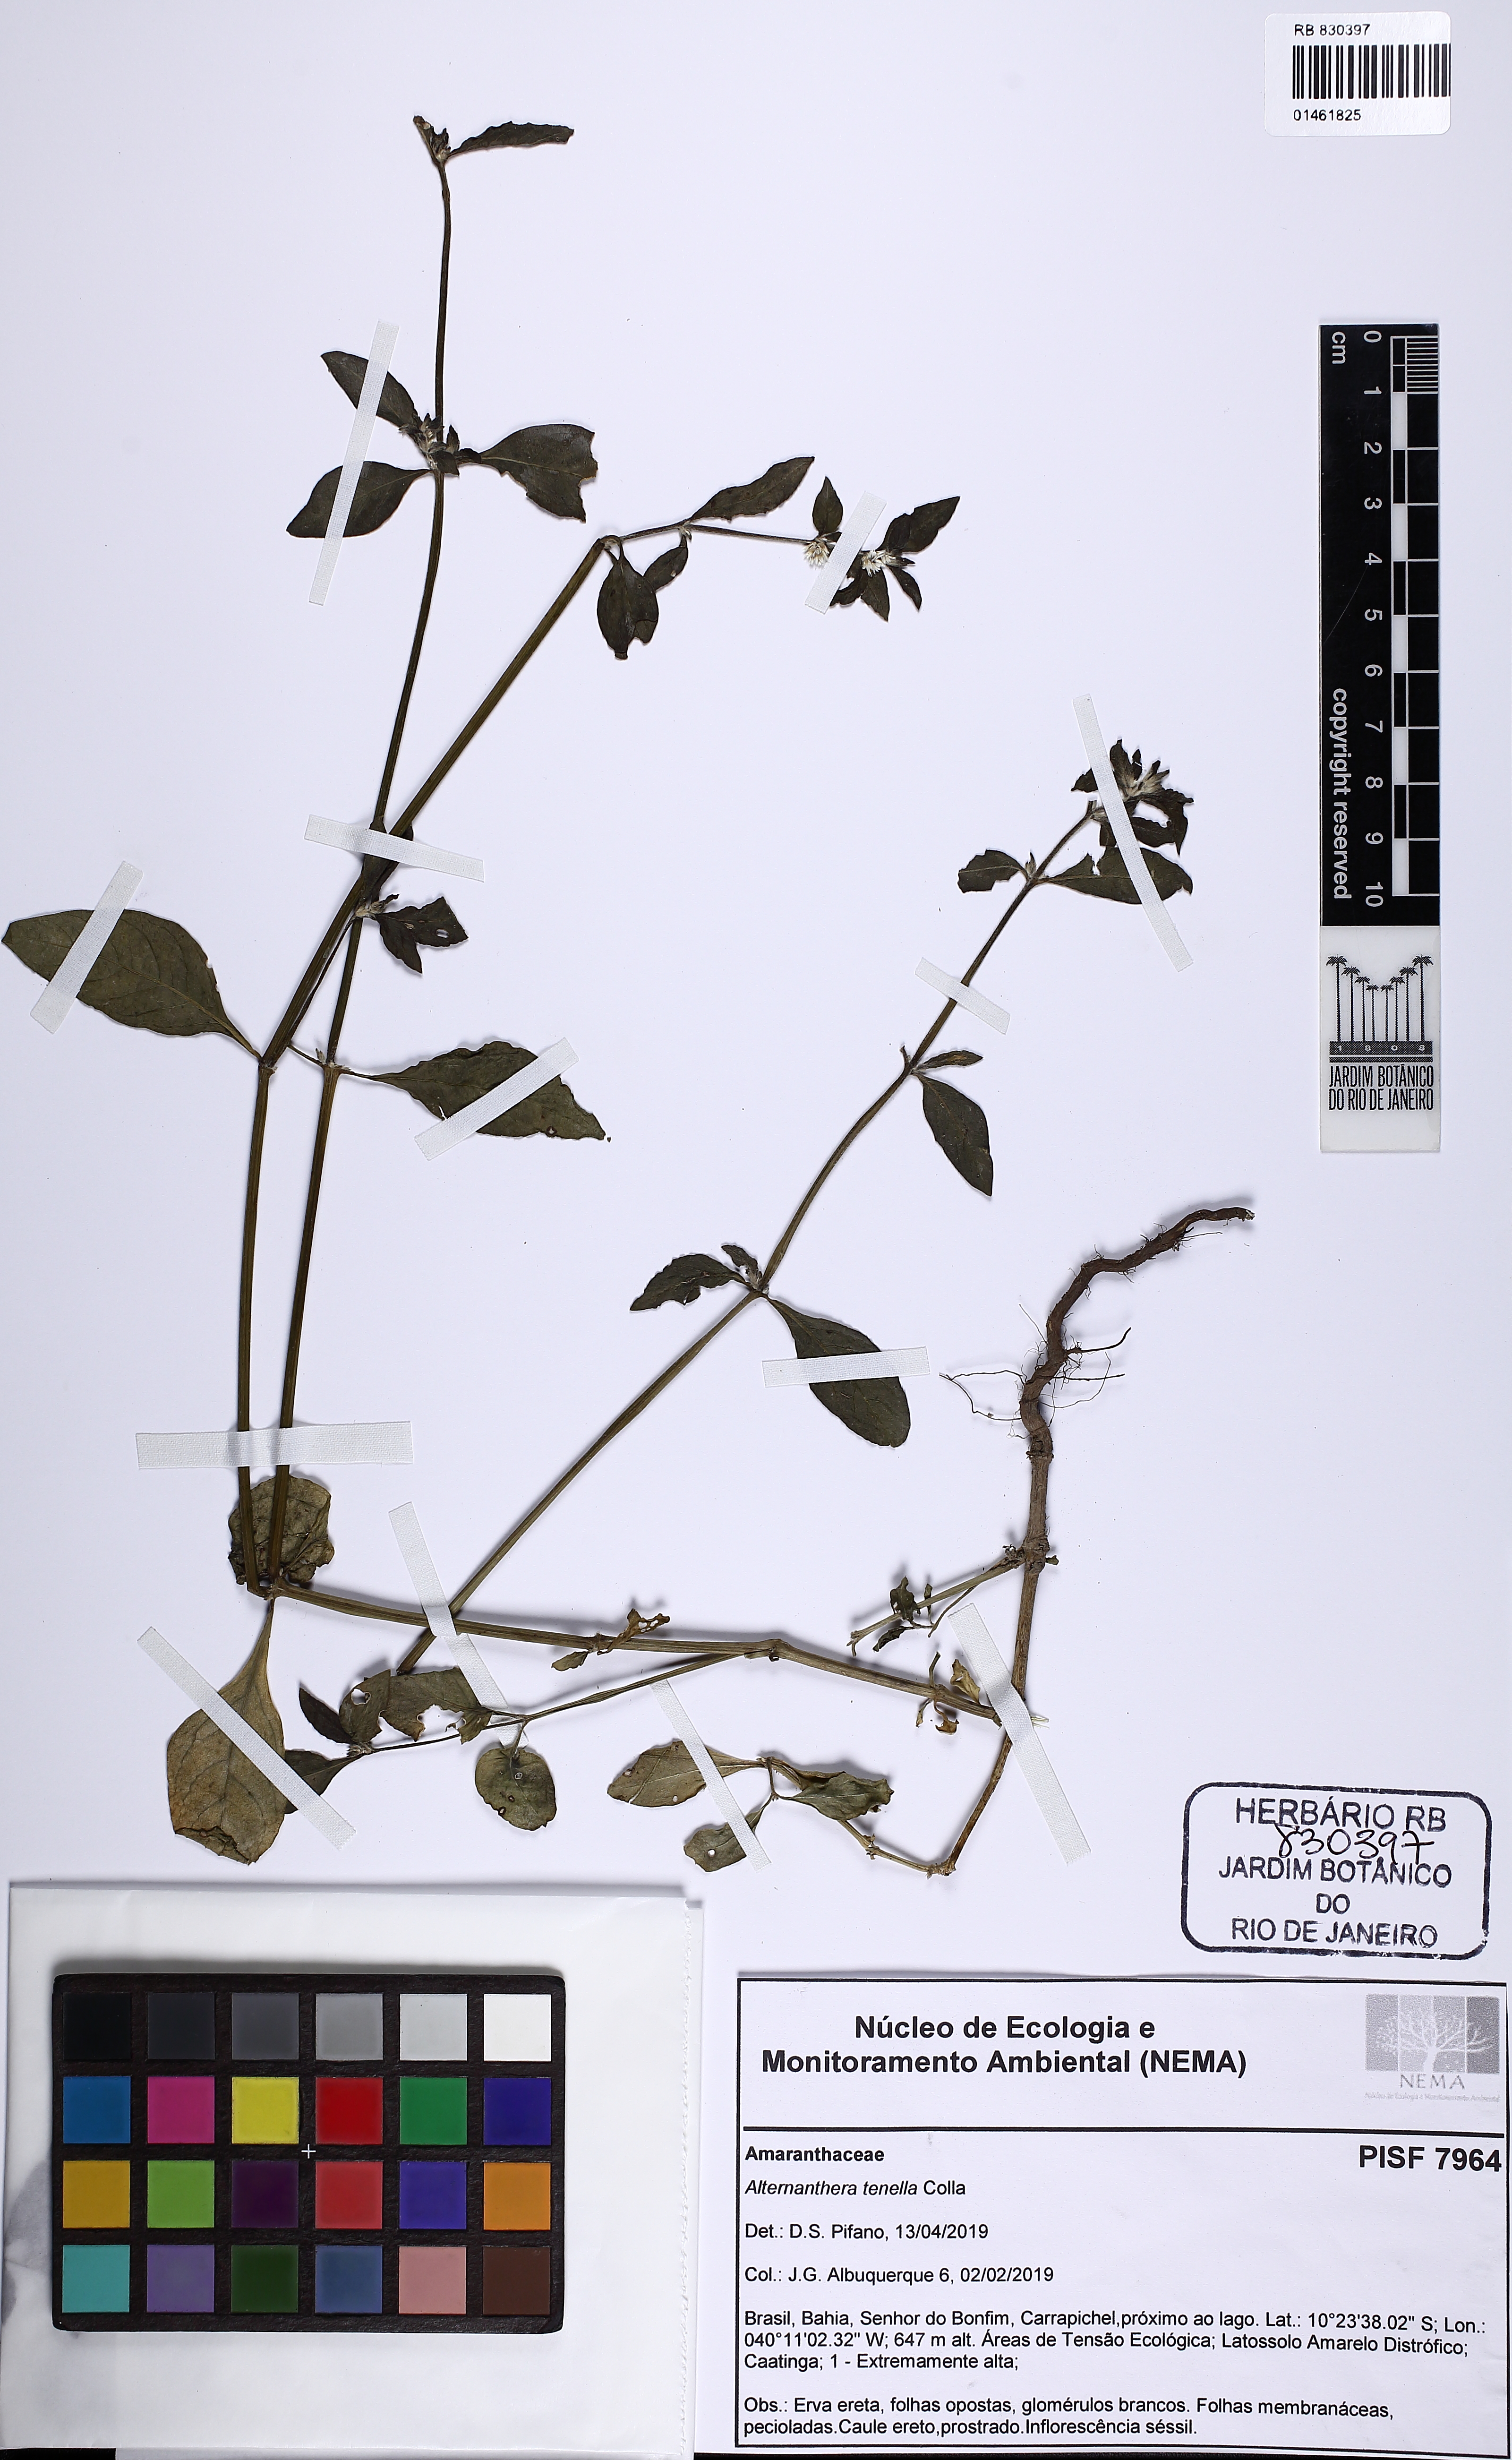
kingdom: Plantae
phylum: Tracheophyta
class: Magnoliopsida
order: Caryophyllales
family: Amaranthaceae
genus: Alternanthera
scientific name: Alternanthera ficoidea
